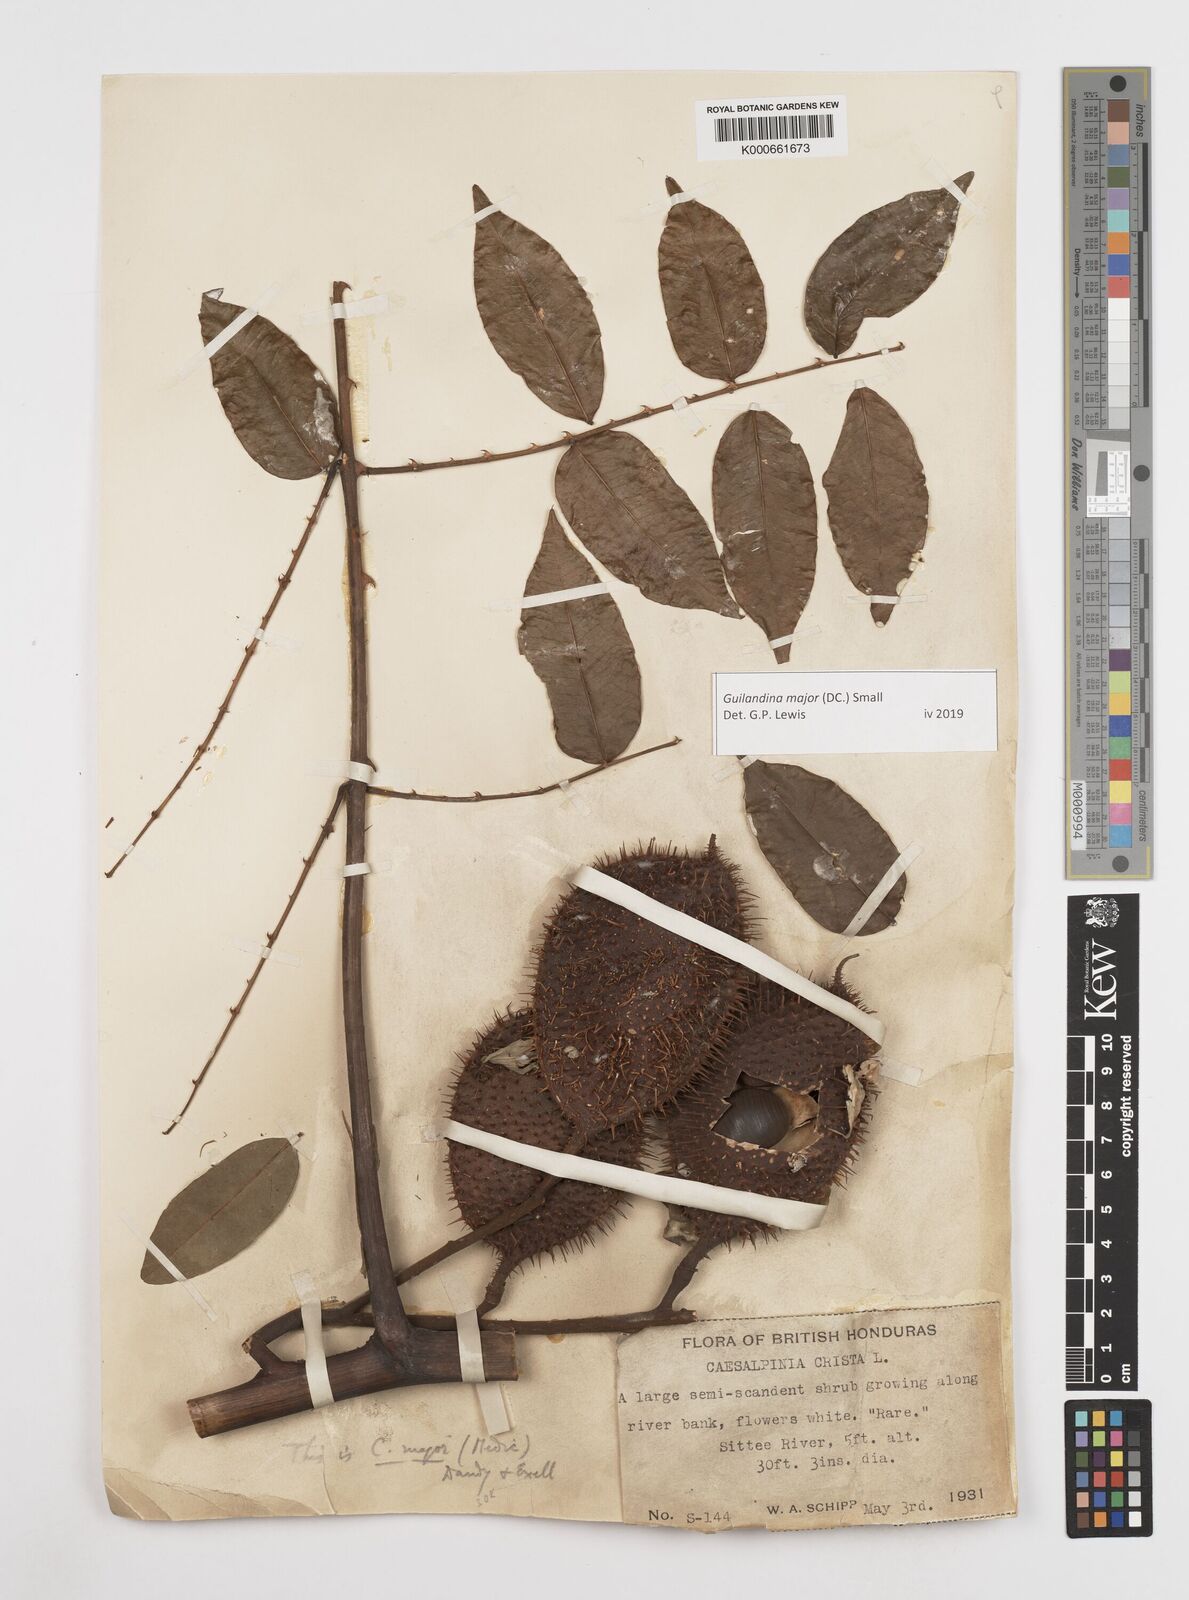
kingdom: Plantae
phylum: Tracheophyta
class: Magnoliopsida
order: Fabales
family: Fabaceae
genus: Guilandina
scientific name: Guilandina major
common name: Hawai'i pearls
